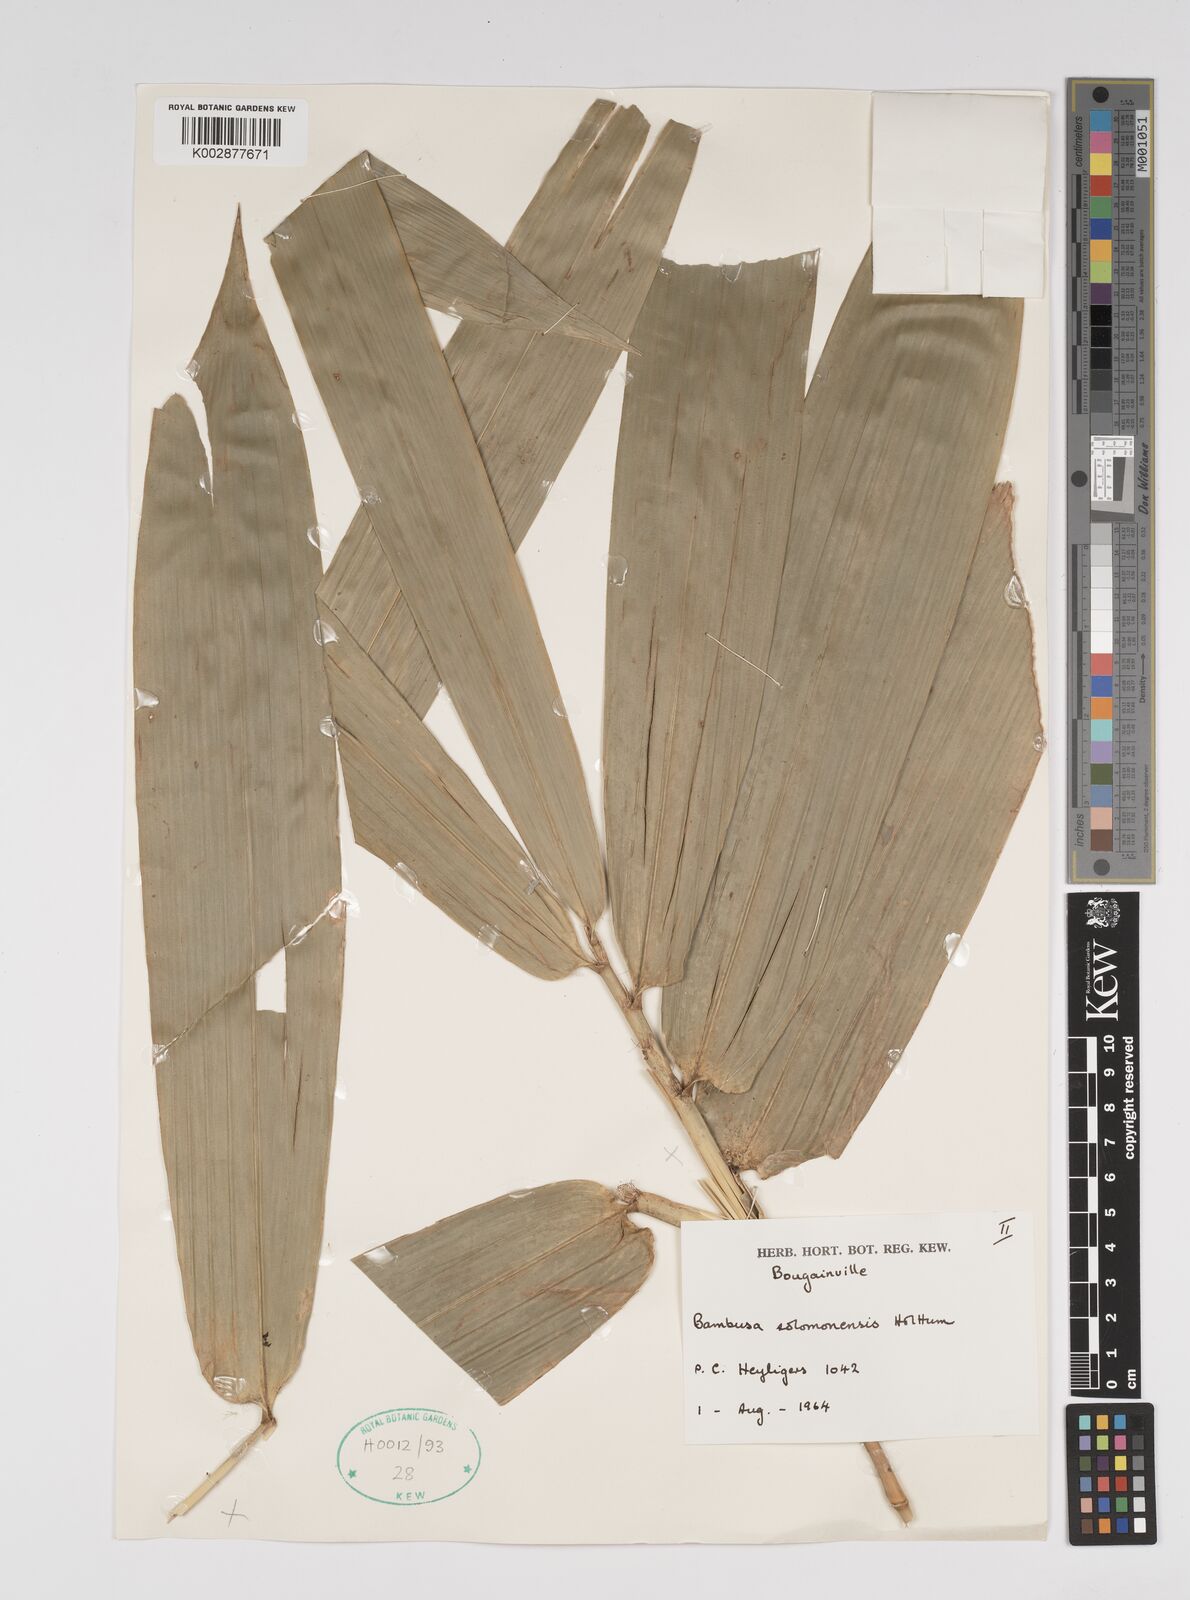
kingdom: Plantae
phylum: Tracheophyta
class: Liliopsida
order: Poales
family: Poaceae
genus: Bambusa
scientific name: Bambusa solomonensis
